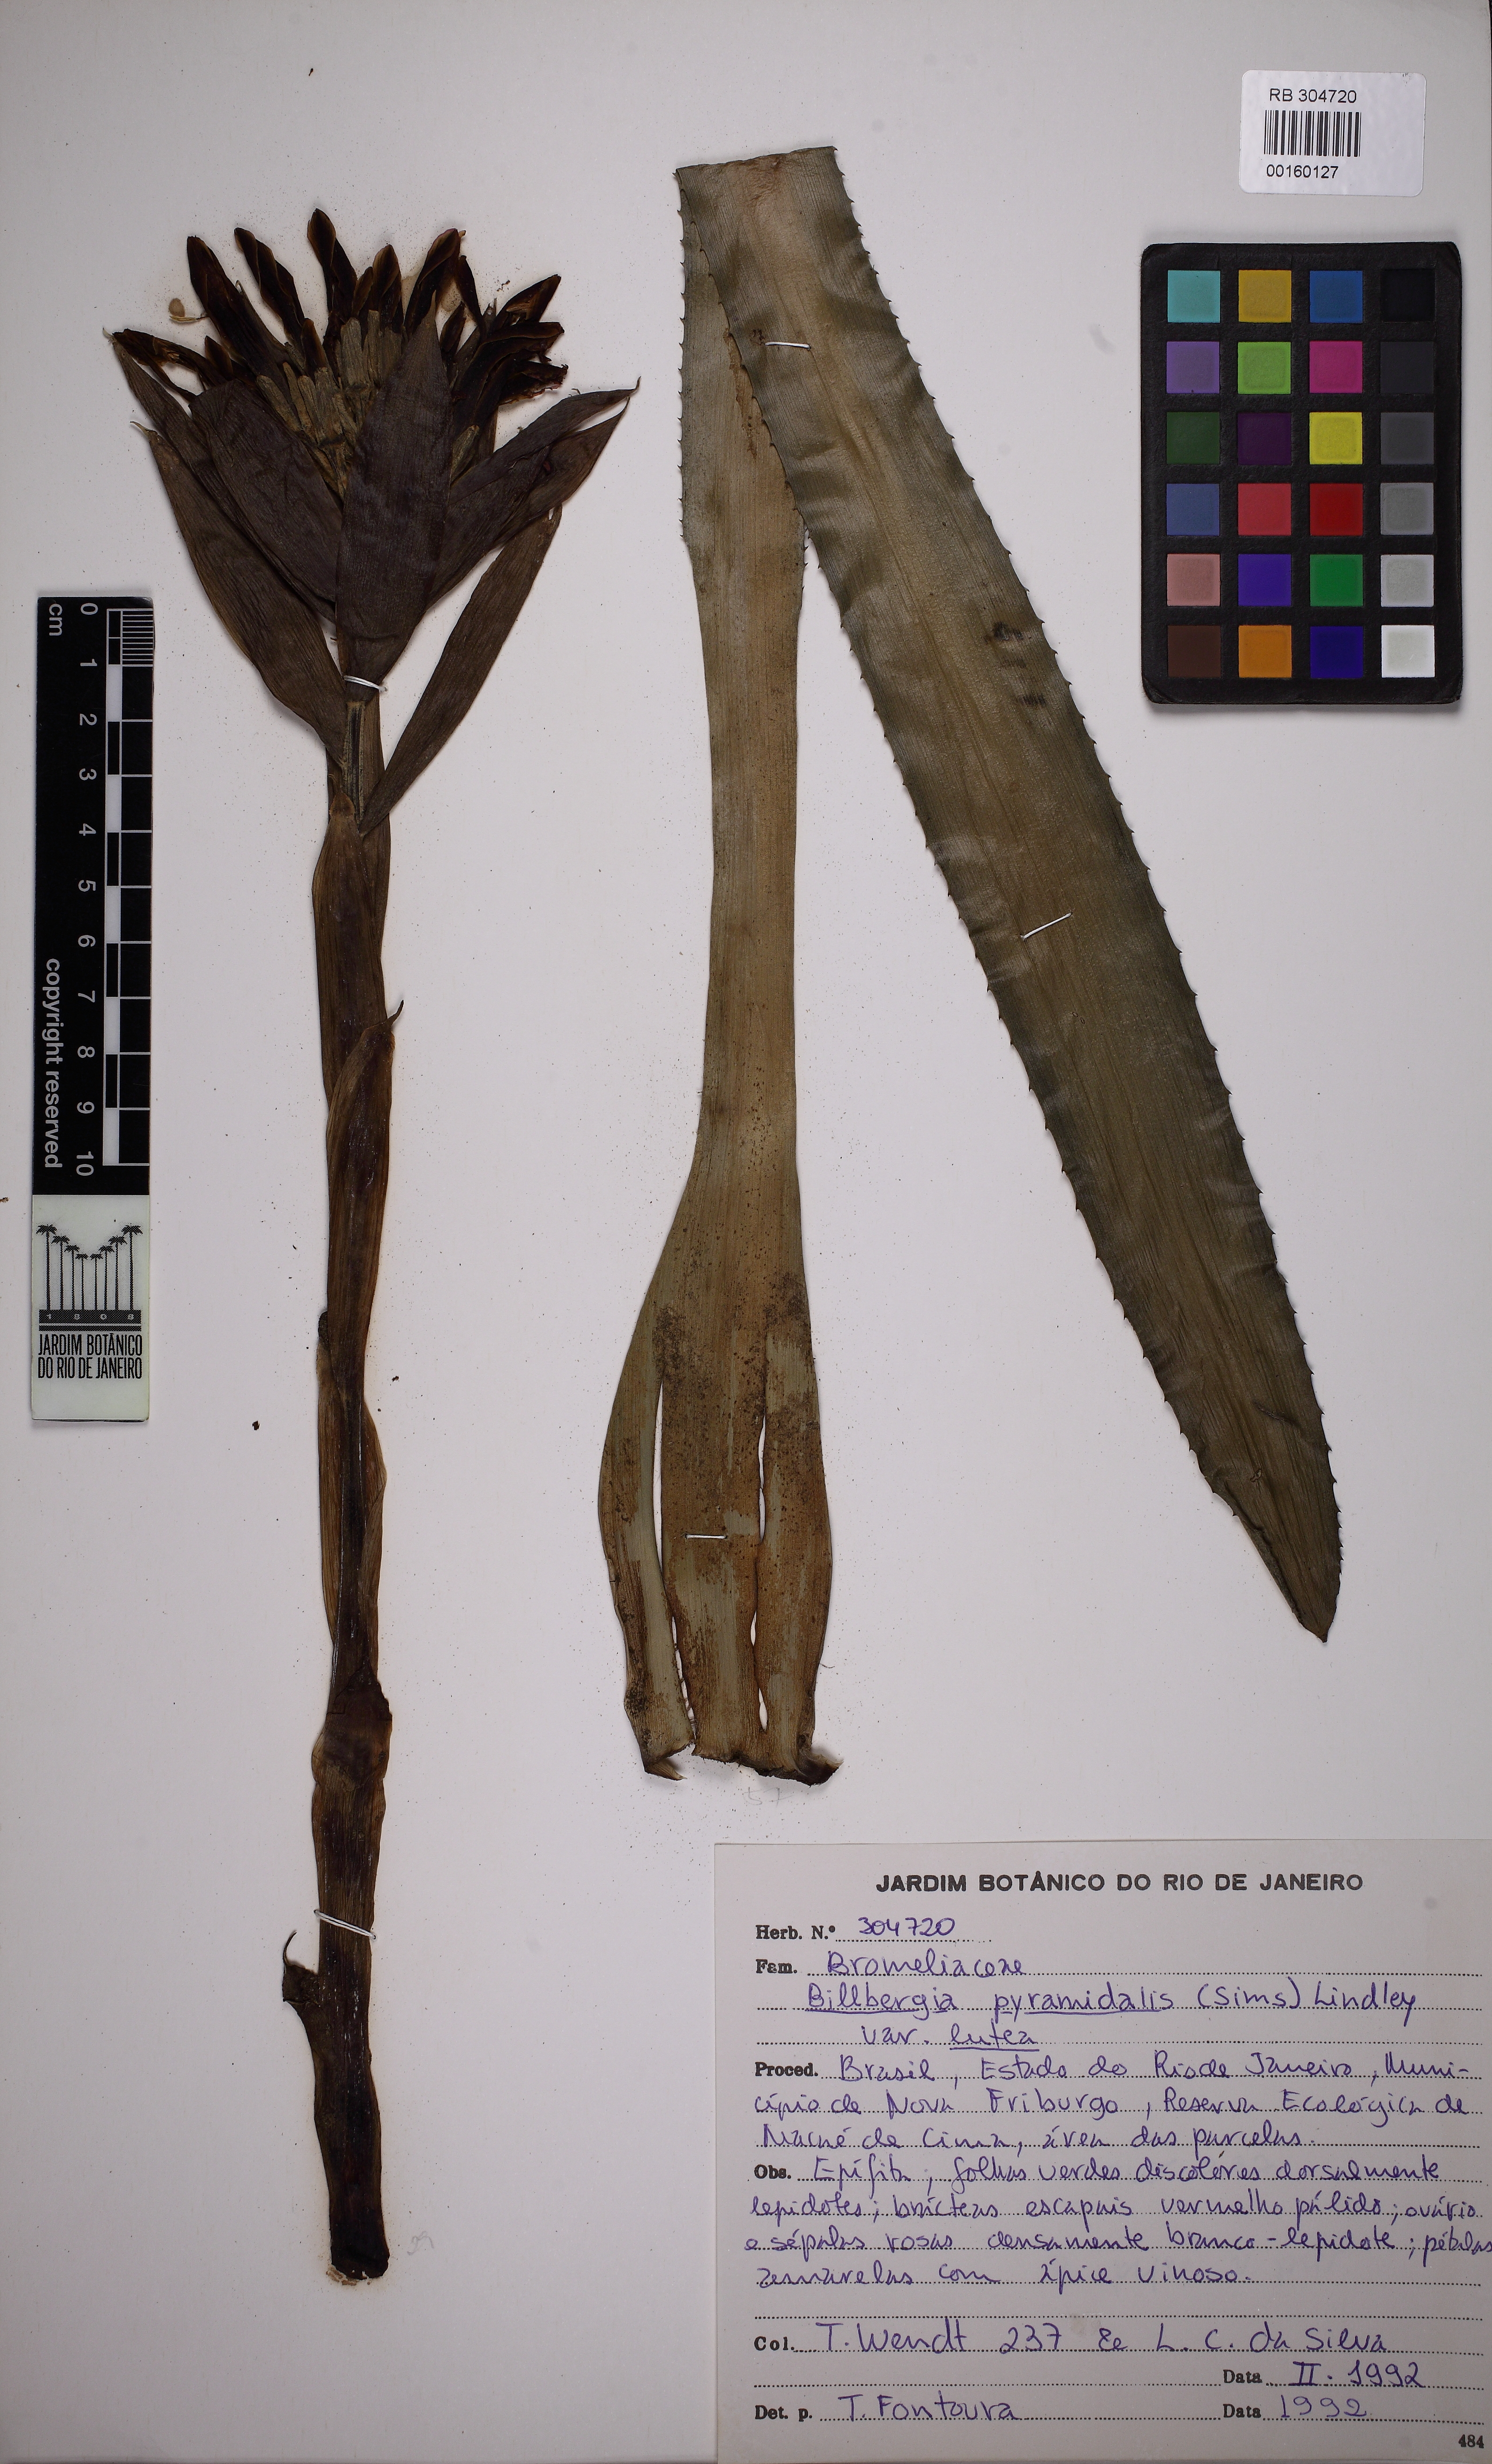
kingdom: Plantae
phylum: Tracheophyta
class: Liliopsida
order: Poales
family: Bromeliaceae
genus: Billbergia
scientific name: Billbergia pyramidalis
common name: Foolproofplant
